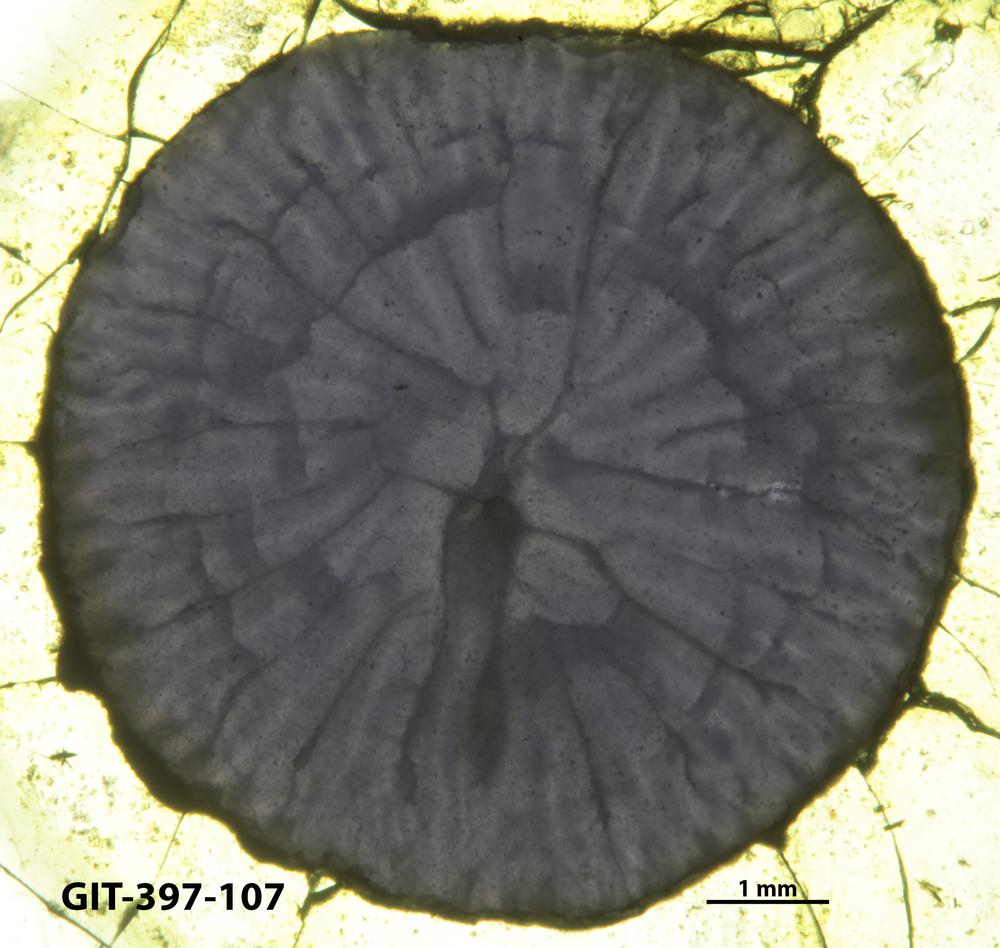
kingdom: Animalia
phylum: Cnidaria
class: Anthozoa
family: Lykophyllidae
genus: Pycnactis
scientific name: Pycnactis
